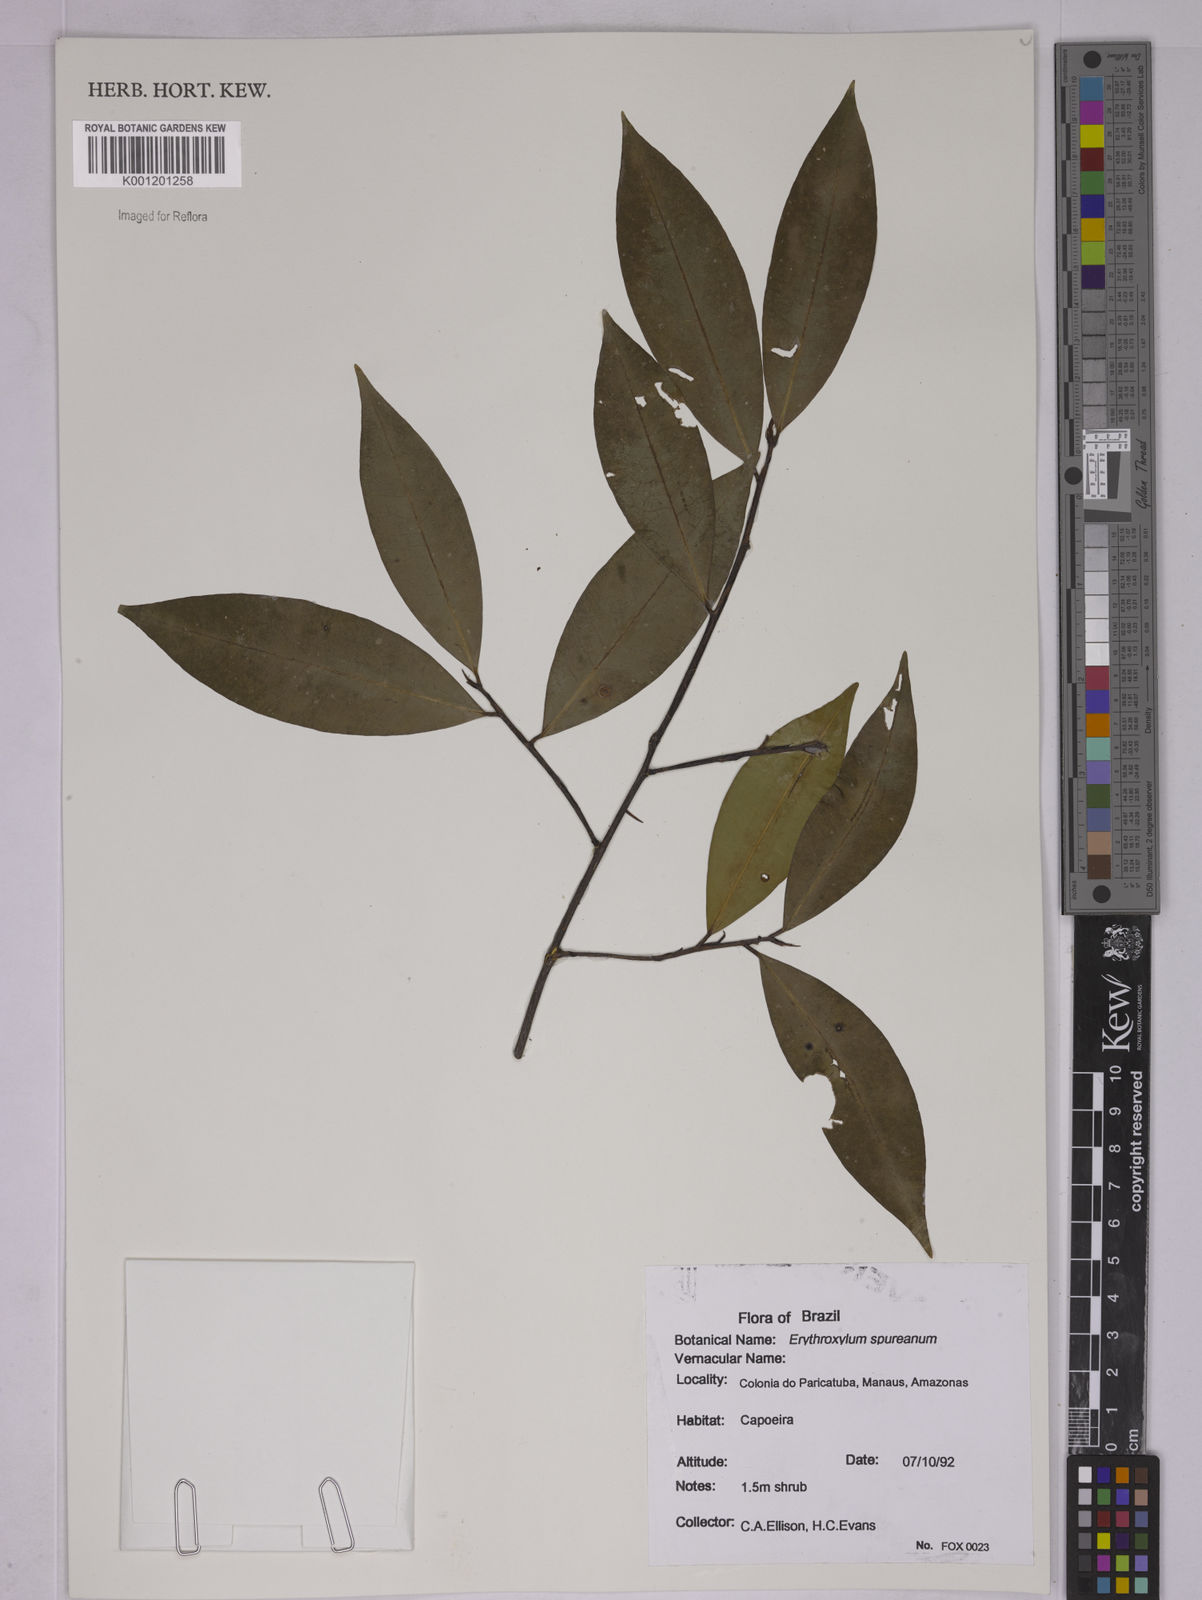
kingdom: Plantae
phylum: Tracheophyta
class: Magnoliopsida
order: Malpighiales
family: Erythroxylaceae
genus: Erythroxylum
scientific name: Erythroxylum spruceanum
